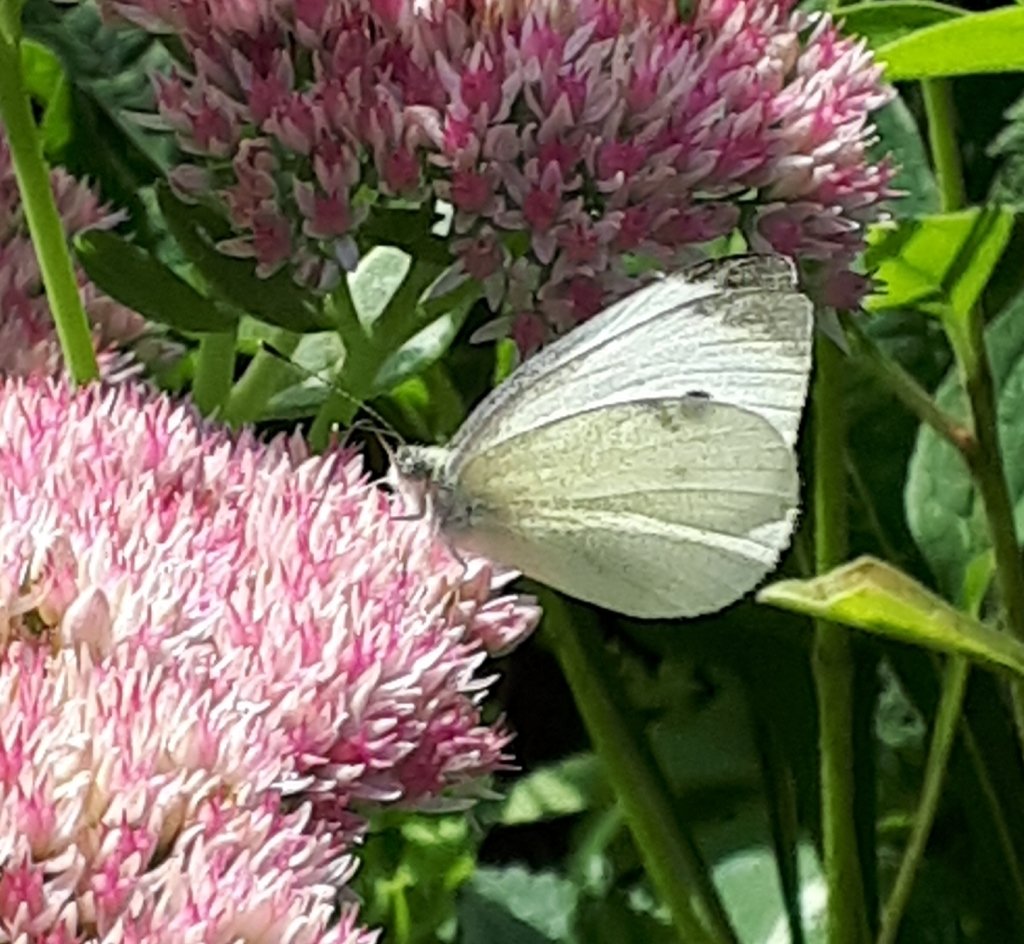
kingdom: Animalia
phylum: Arthropoda
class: Insecta
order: Lepidoptera
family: Pieridae
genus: Pieris
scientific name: Pieris rapae
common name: Cabbage White
